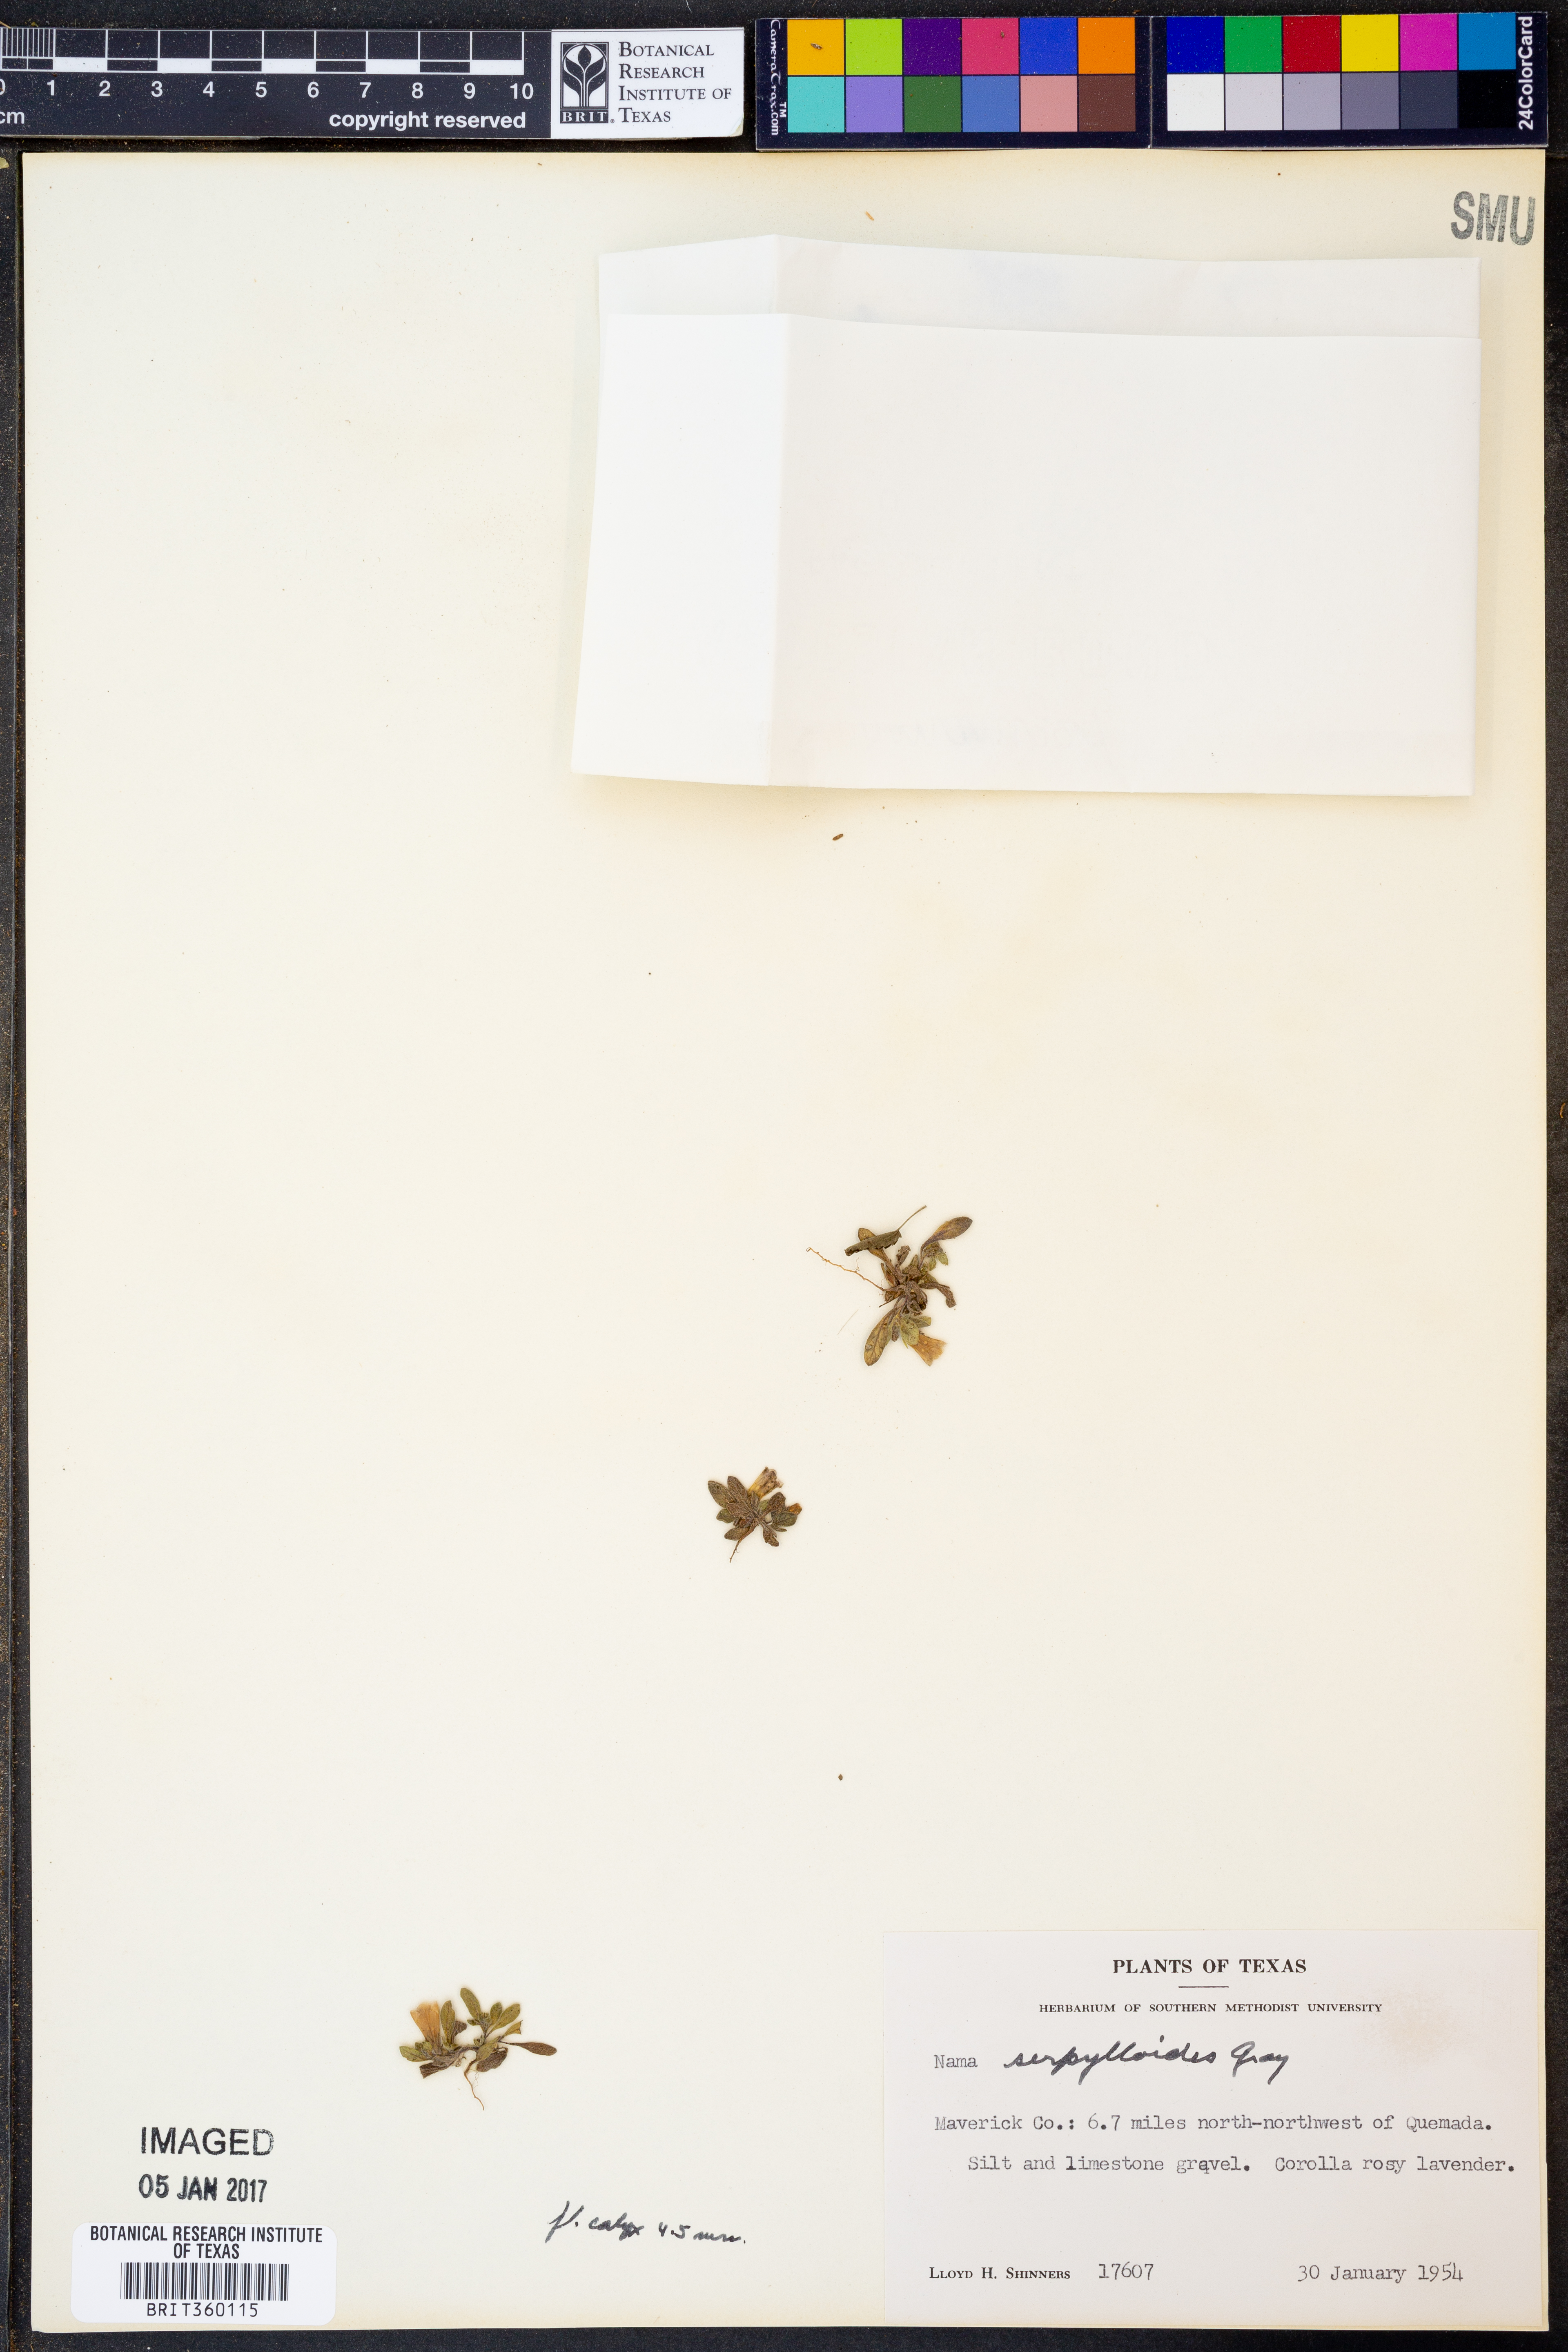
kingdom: Plantae
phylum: Tracheophyta
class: Magnoliopsida
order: Boraginales
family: Namaceae
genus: Nama
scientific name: Nama serpylloides
